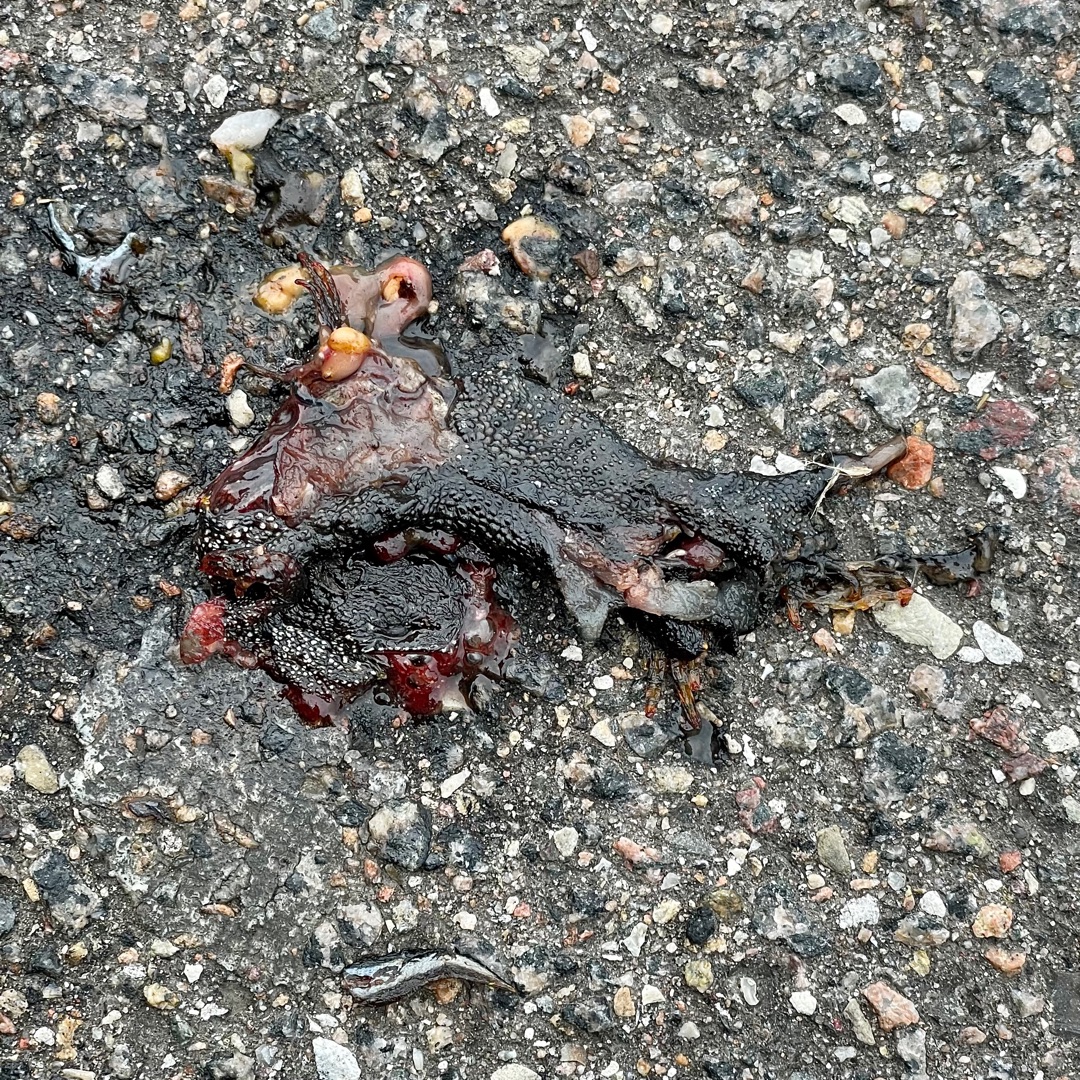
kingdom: Animalia
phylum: Chordata
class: Amphibia
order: Caudata
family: Salamandridae
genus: Triturus
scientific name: Triturus cristatus
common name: Stor vandsalamander
